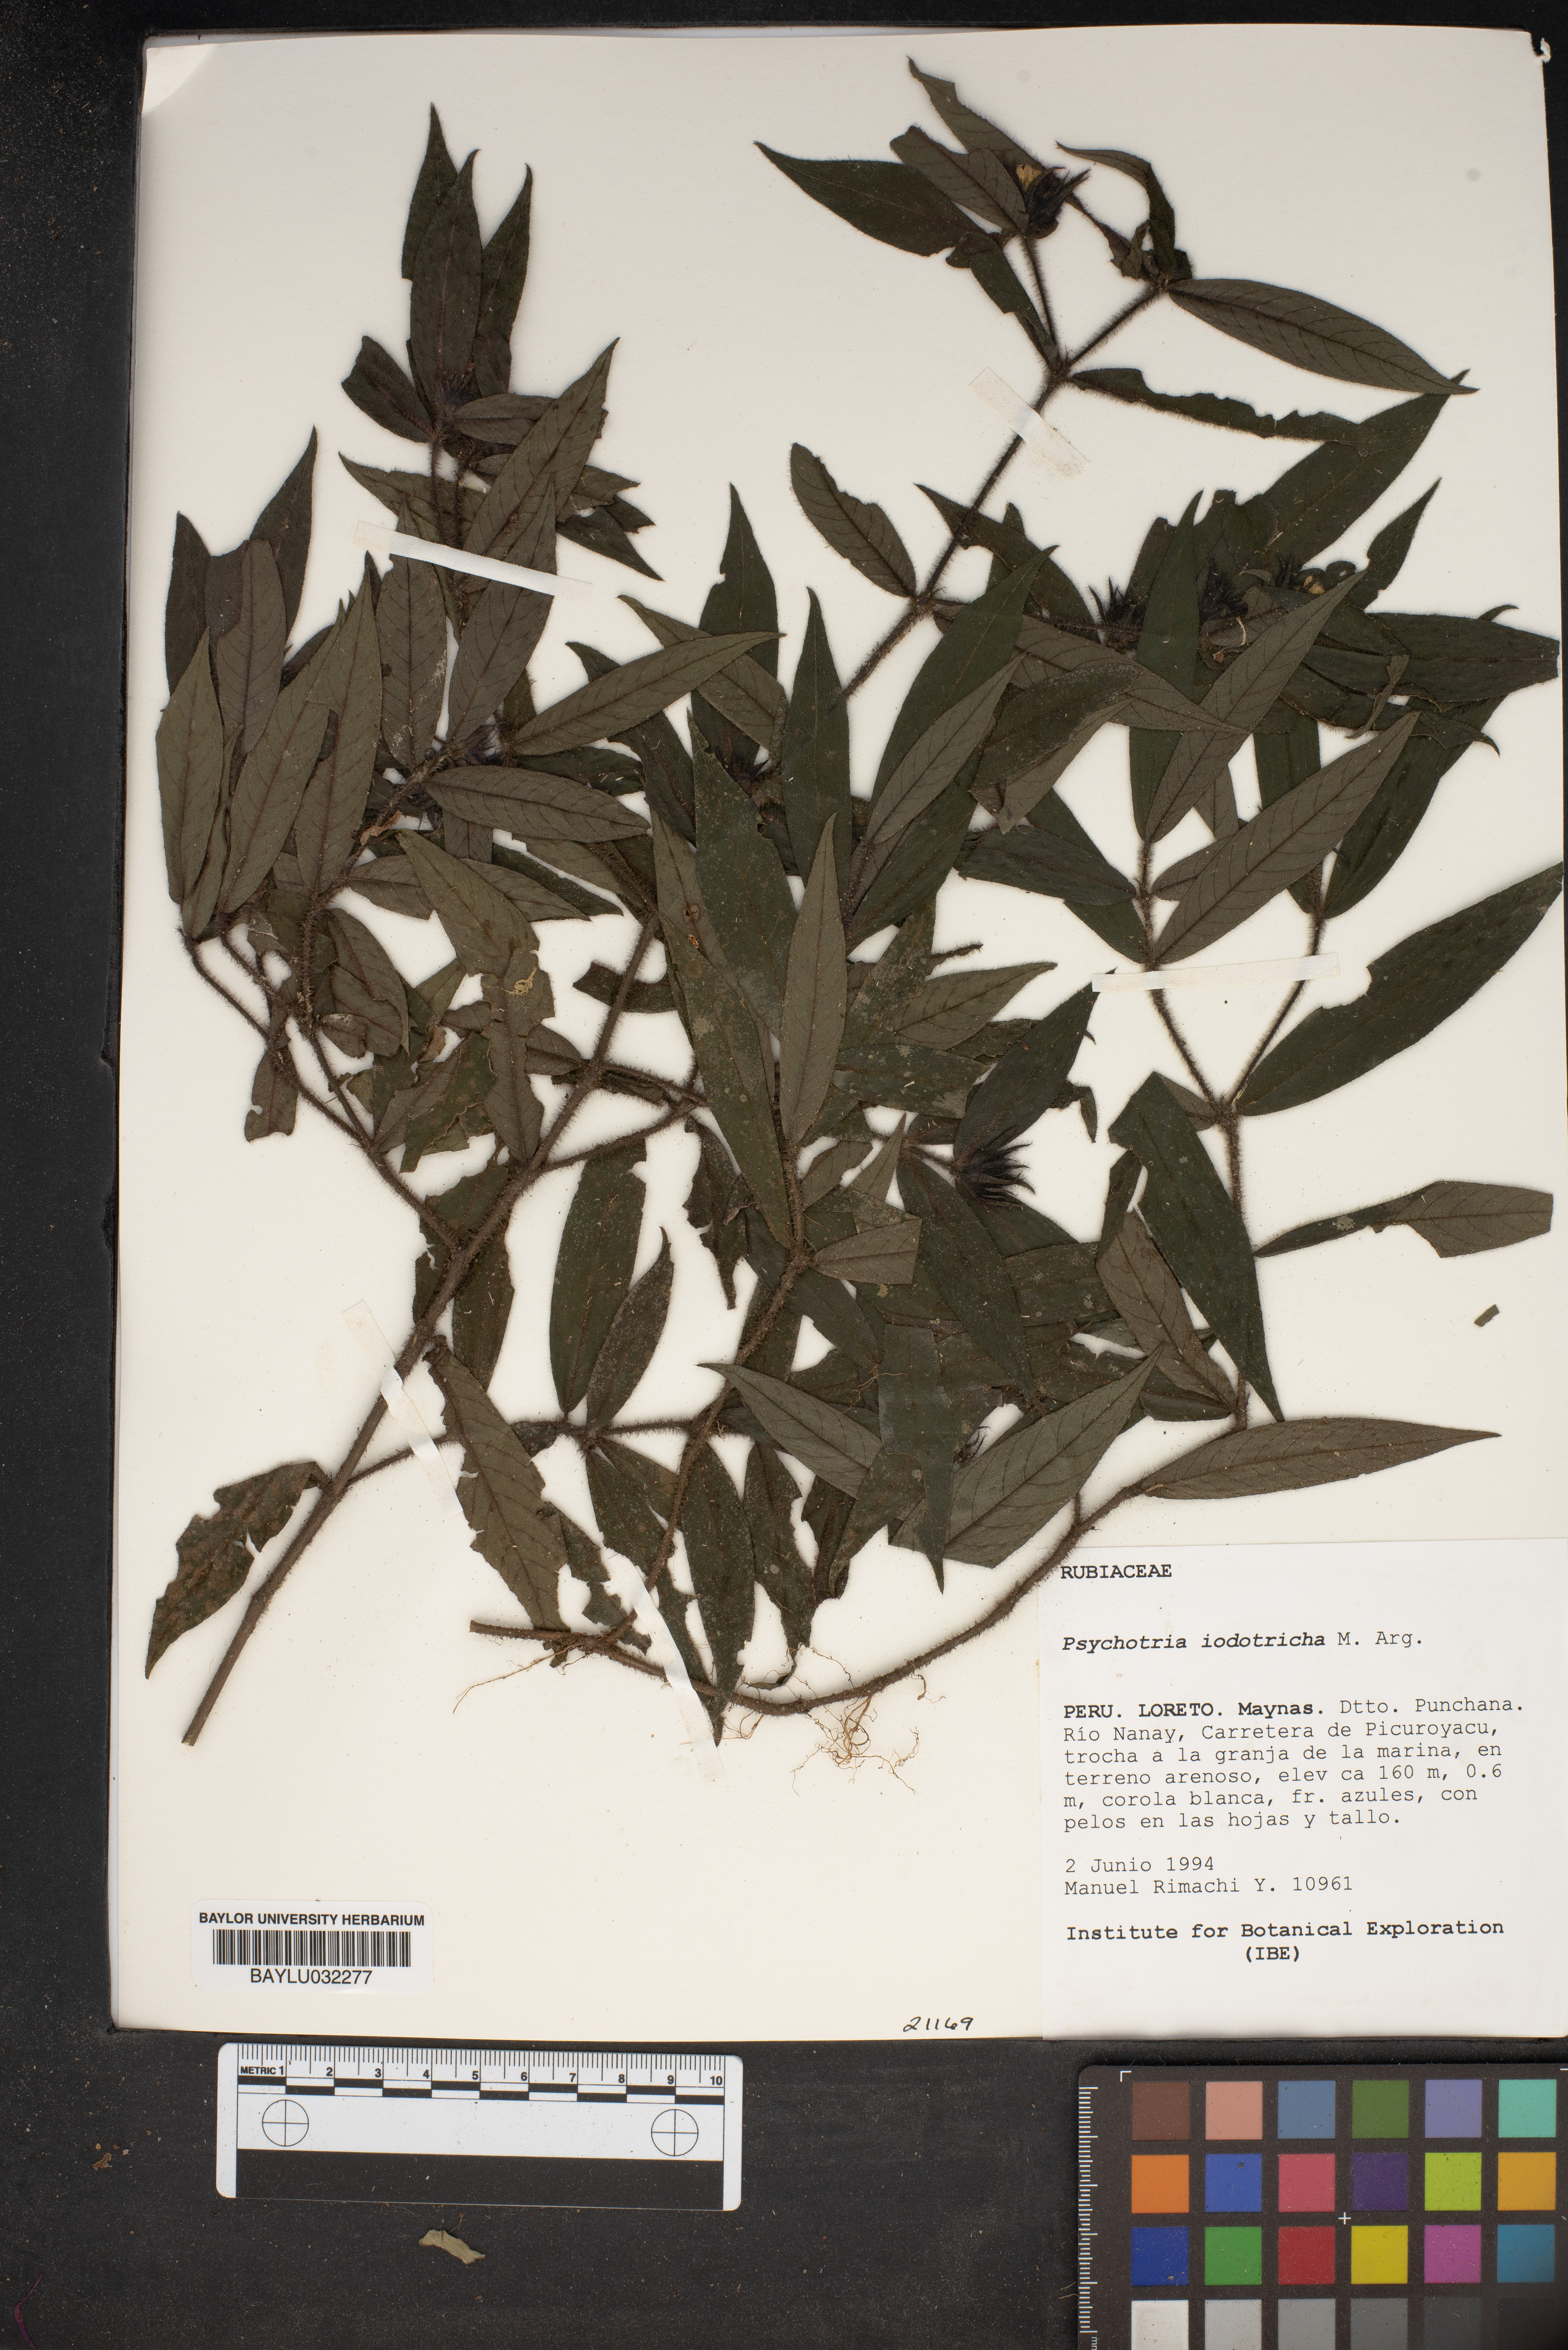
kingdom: Plantae
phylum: Tracheophyta
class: Magnoliopsida
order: Gentianales
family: Rubiaceae
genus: Palicourea
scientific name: Palicourea iodotricha
